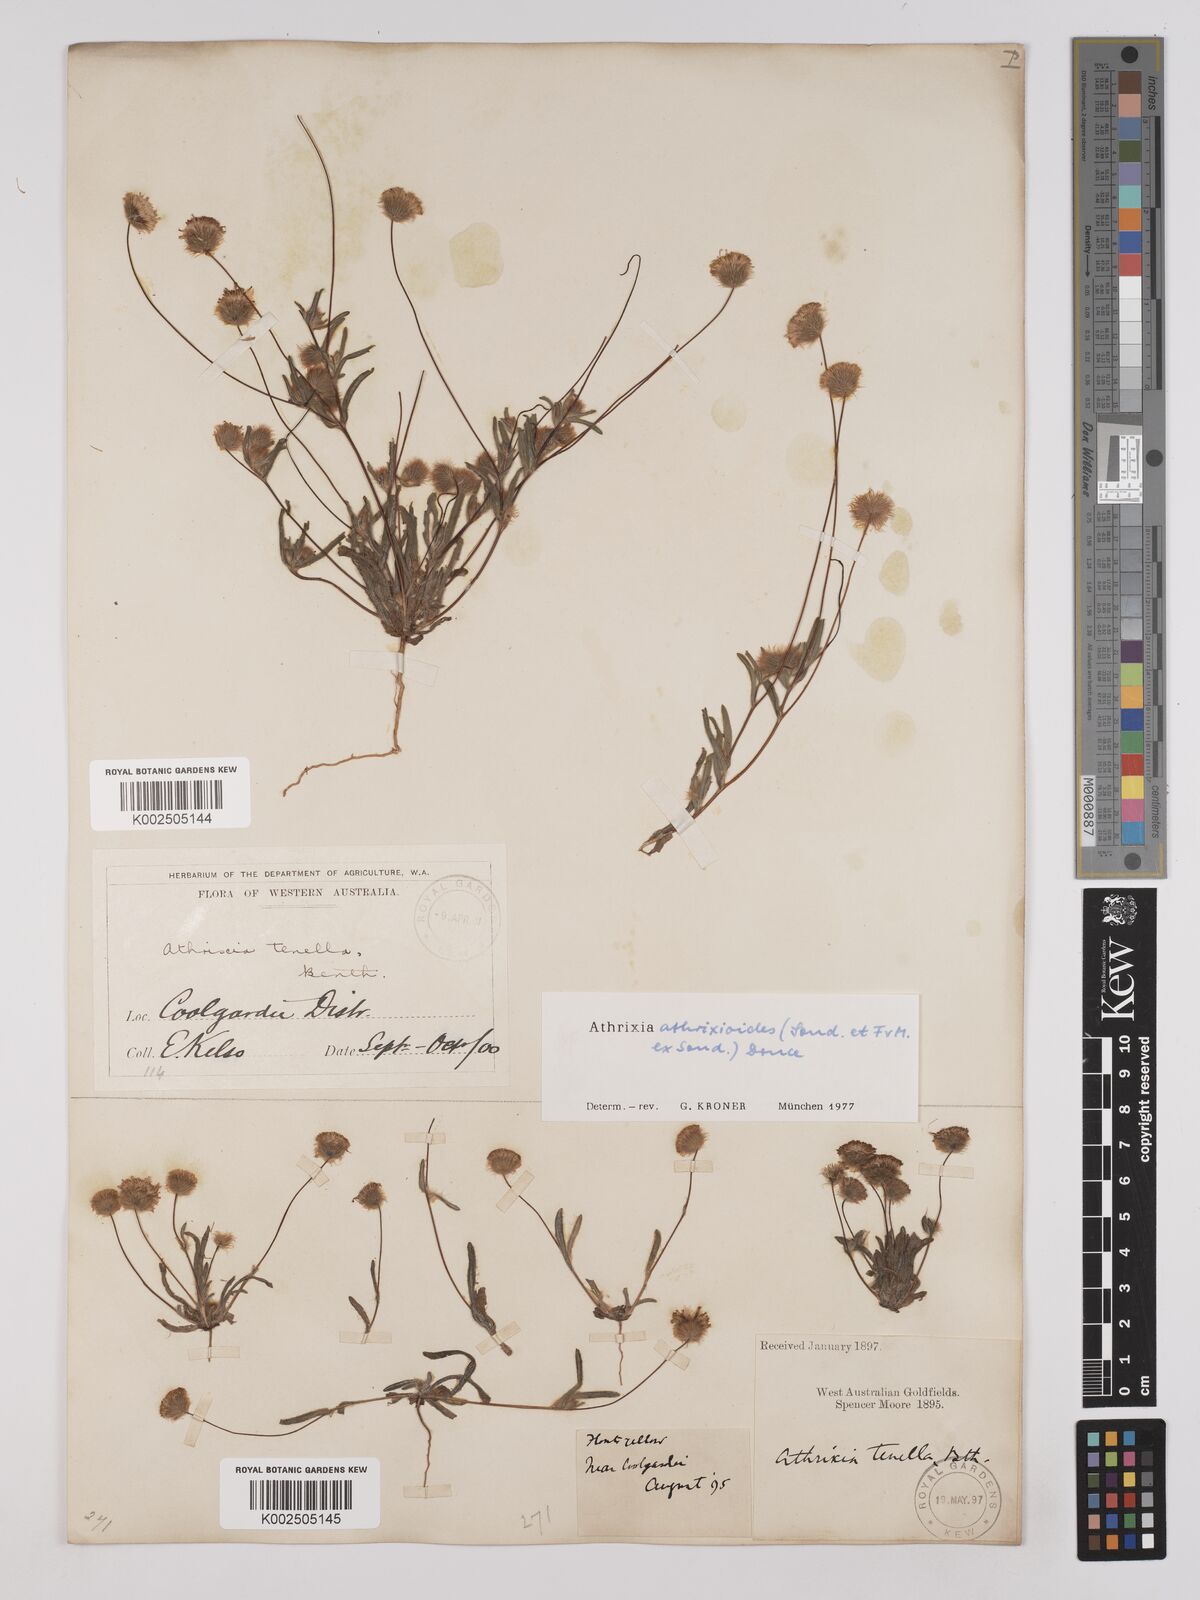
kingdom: Plantae
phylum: Tracheophyta
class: Magnoliopsida
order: Asterales
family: Asteraceae
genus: Asteridea
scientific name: Asteridea athrixioides
